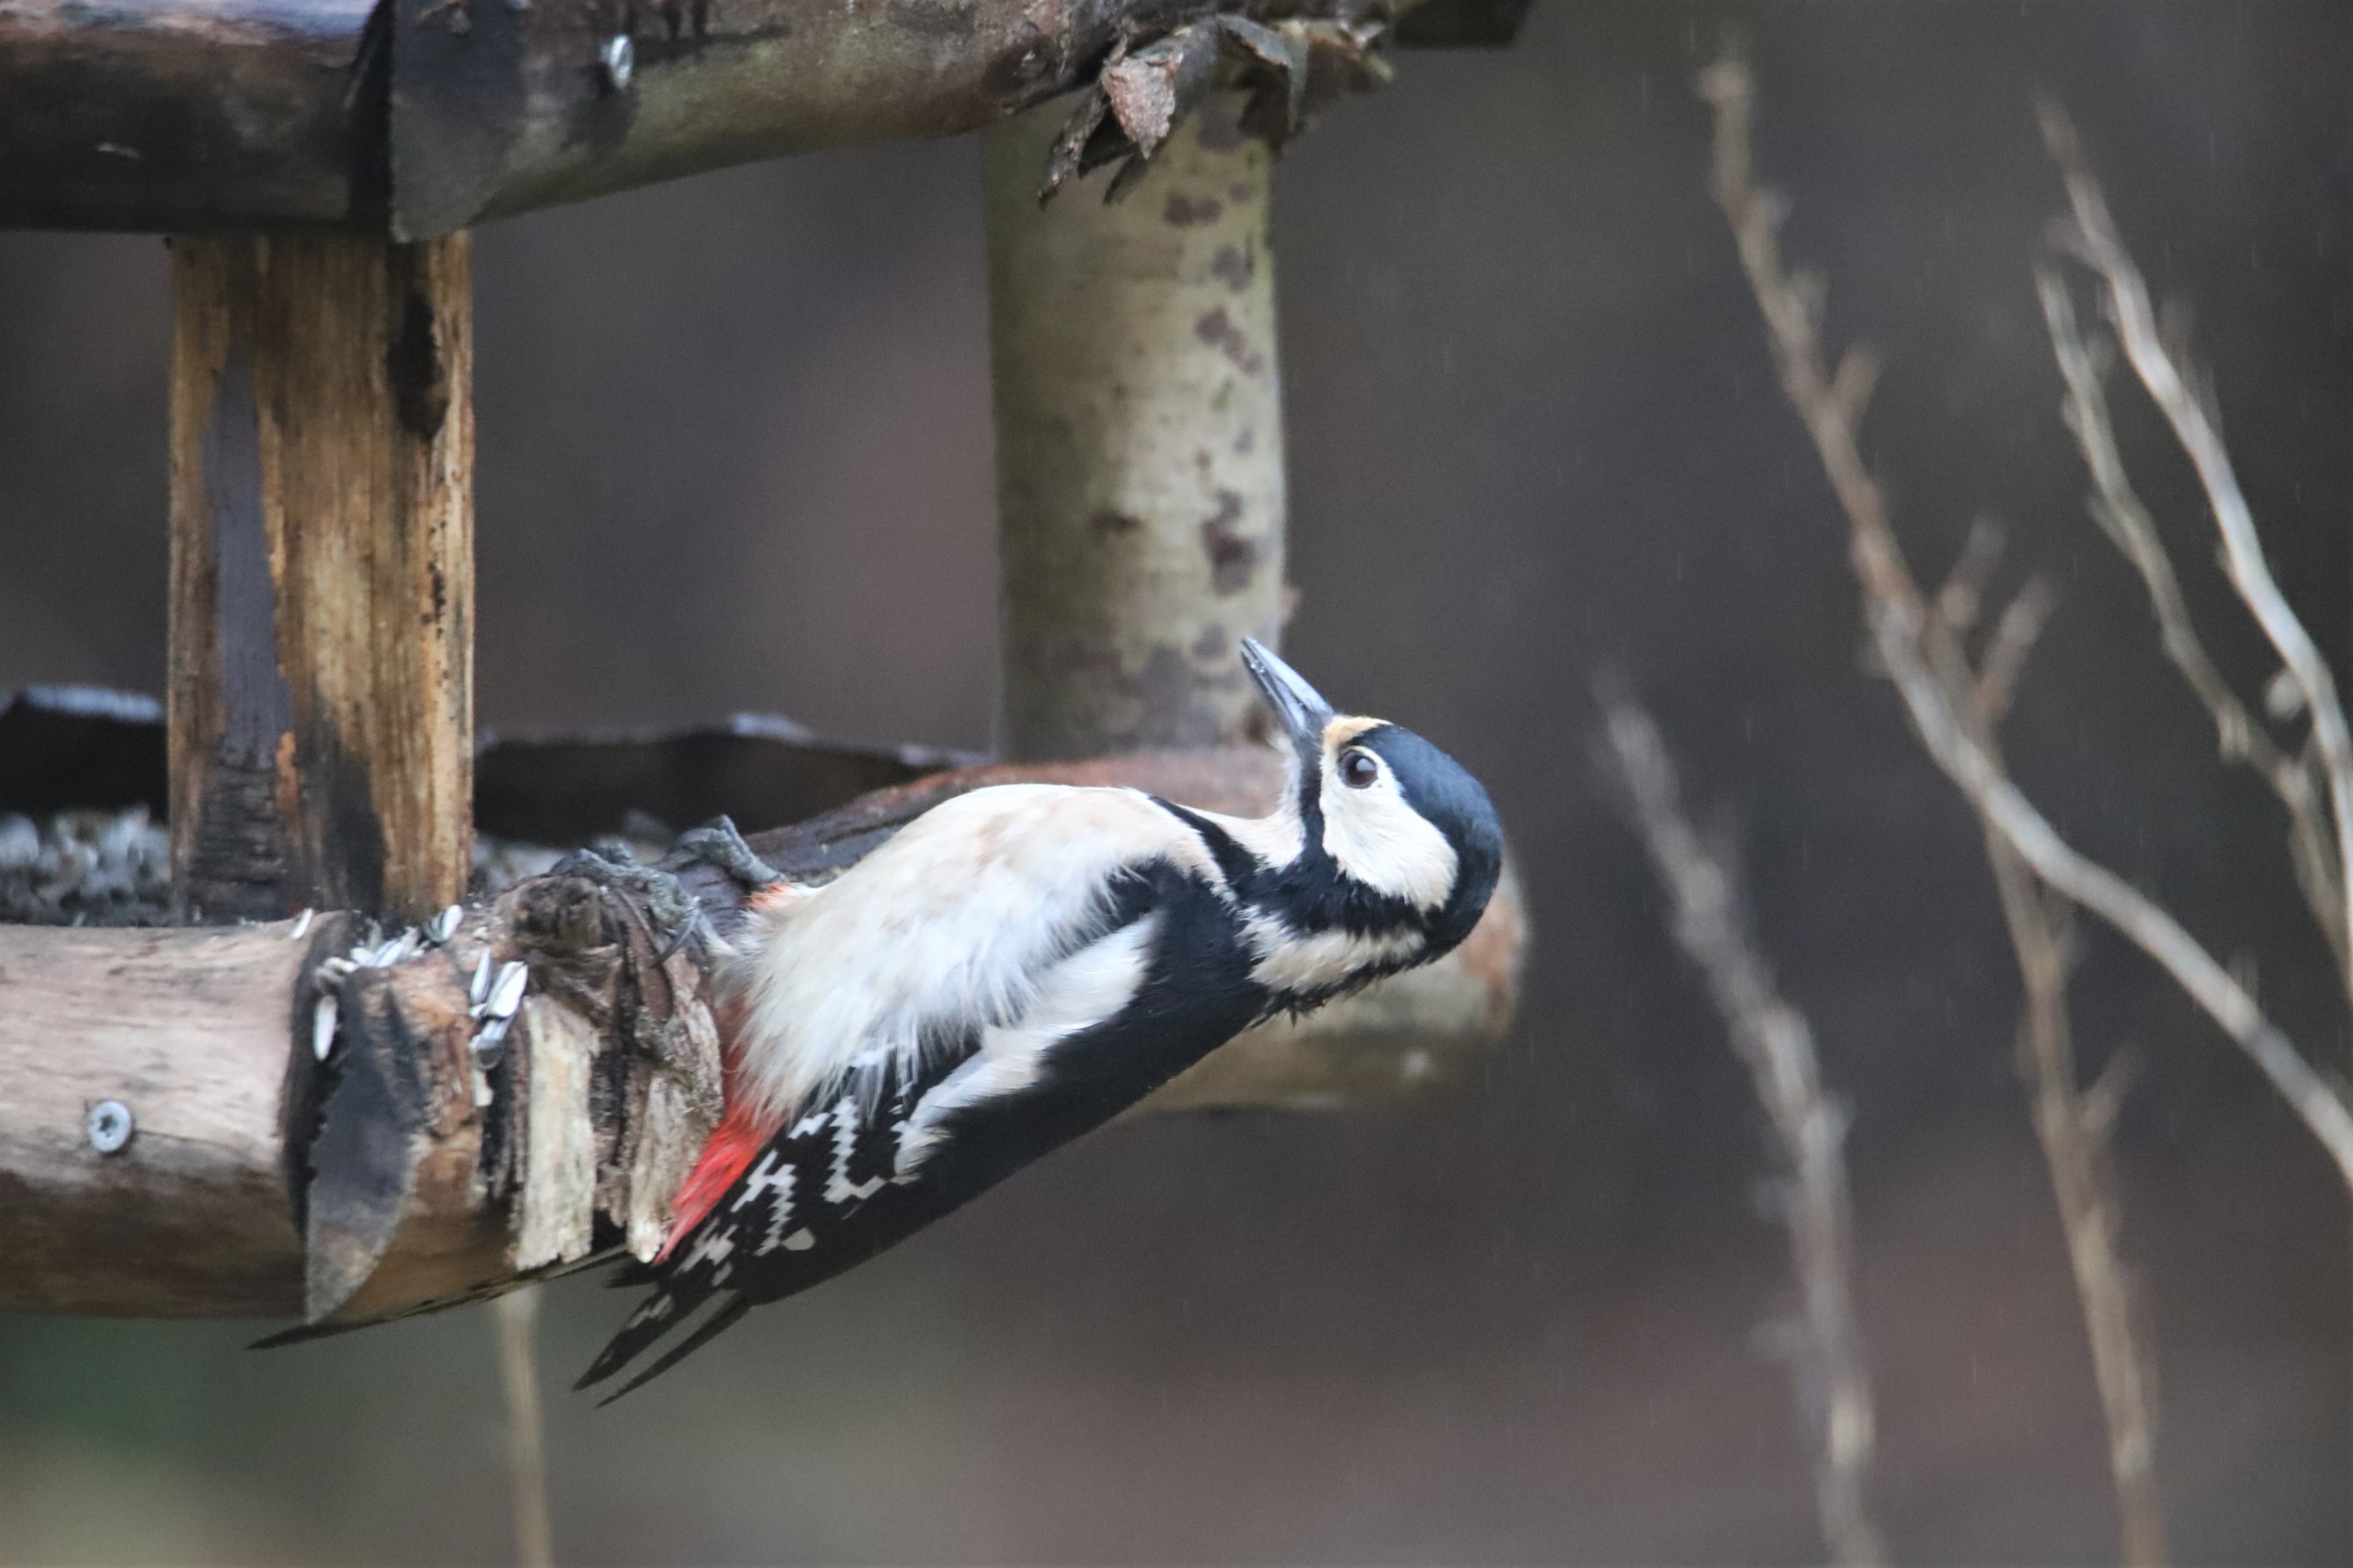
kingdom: Animalia
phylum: Chordata
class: Aves
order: Piciformes
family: Picidae
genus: Dendrocopos
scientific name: Dendrocopos major
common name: Stor flagspætte
